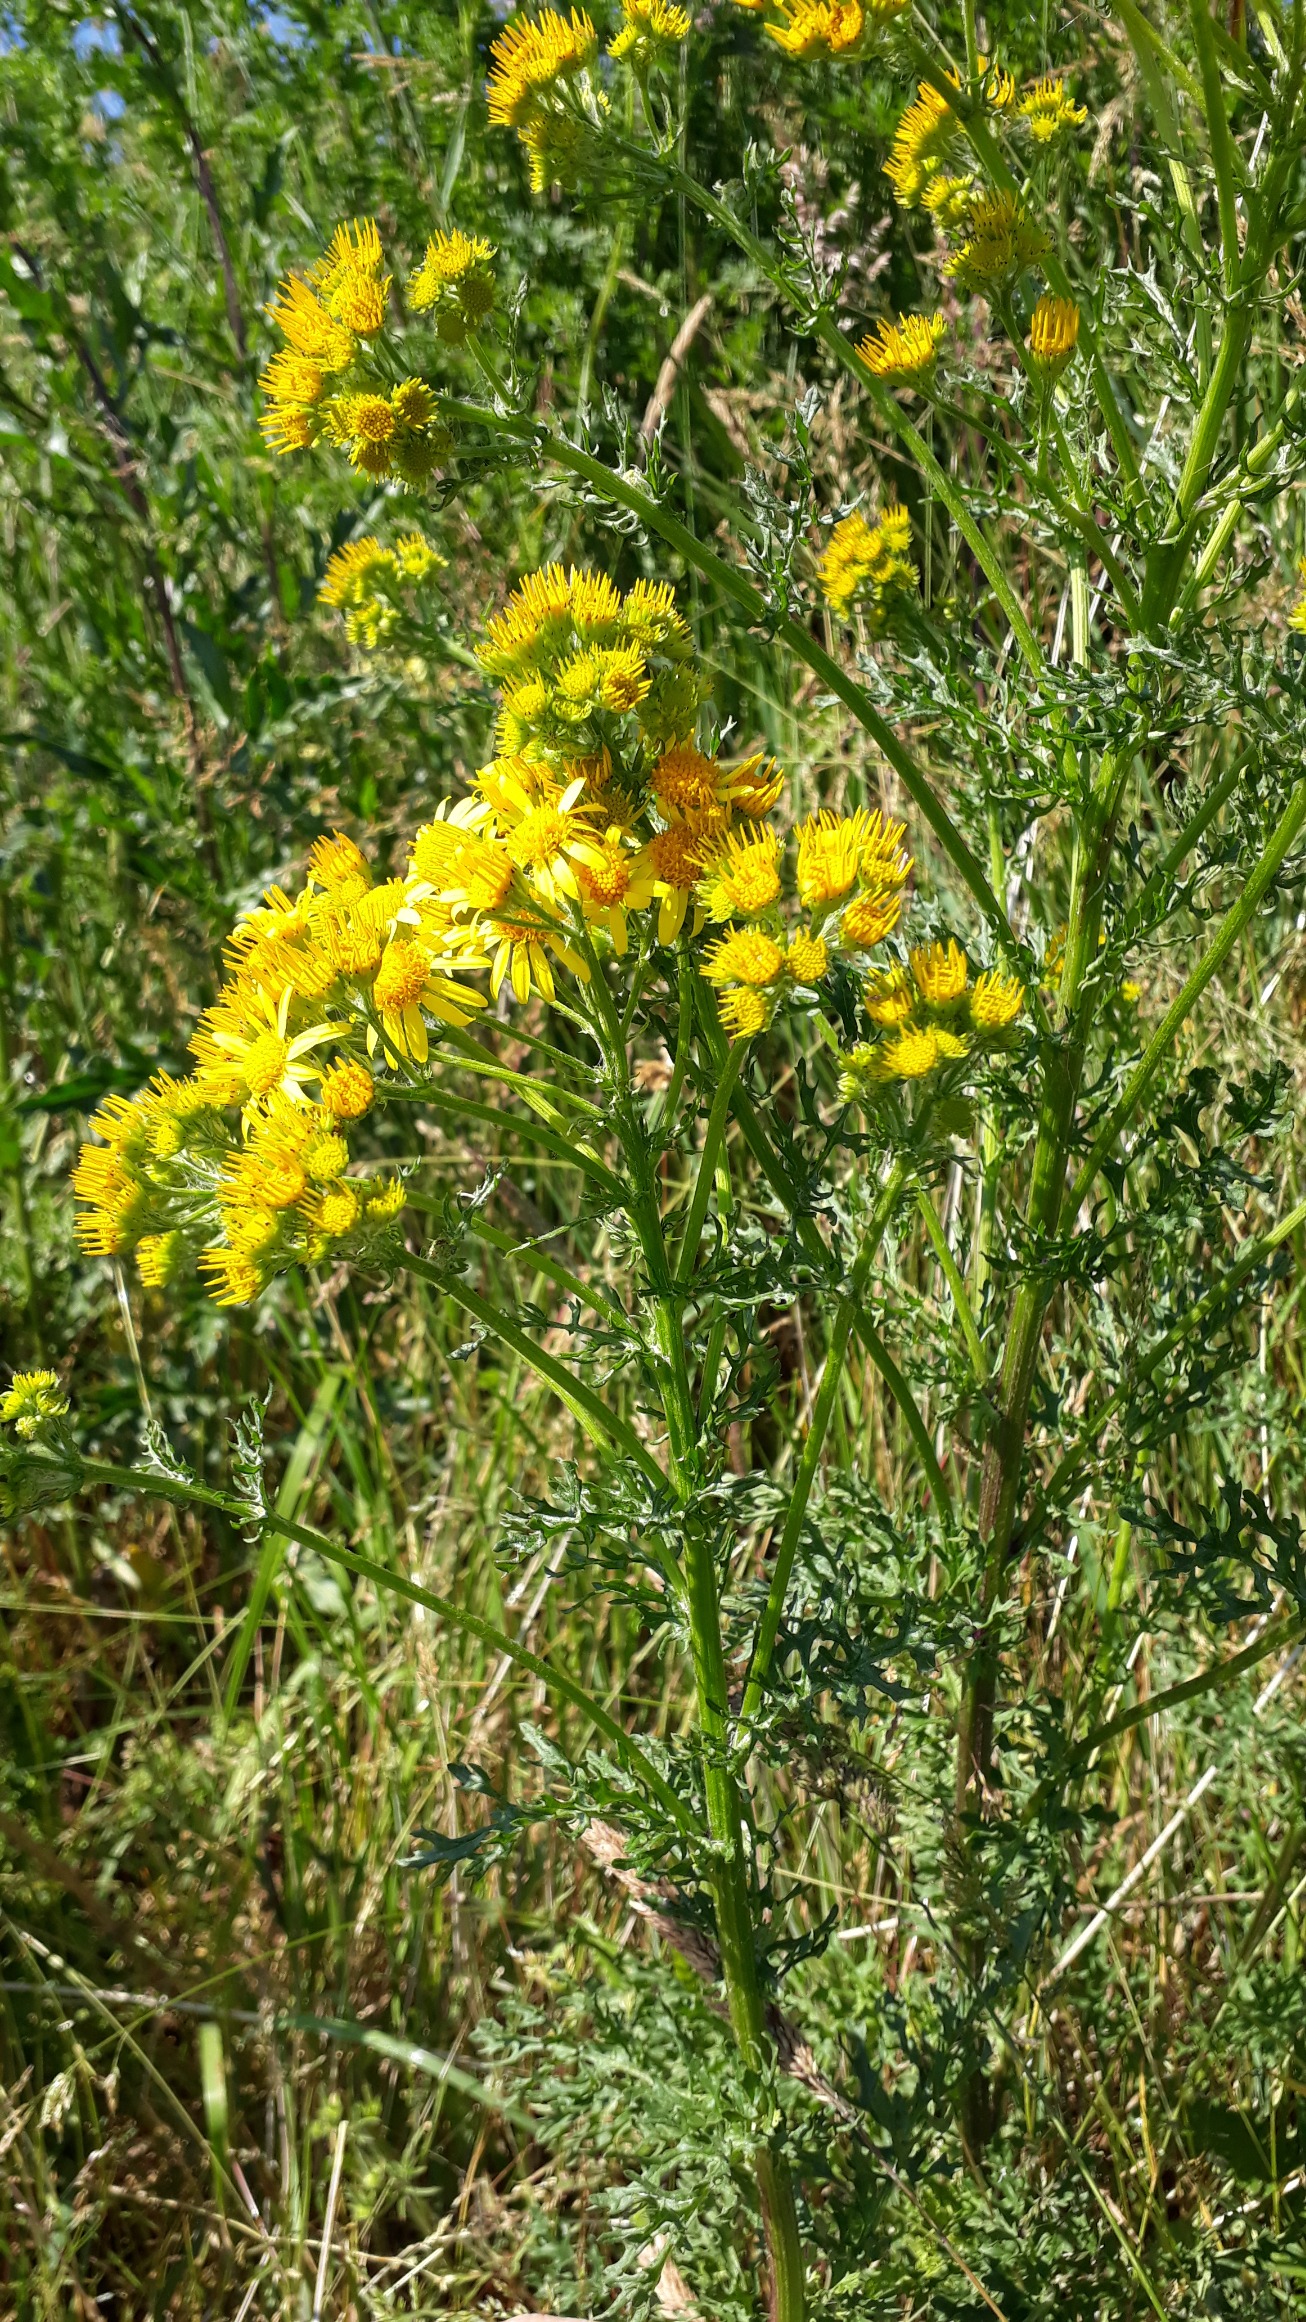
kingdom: Plantae
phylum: Tracheophyta
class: Magnoliopsida
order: Asterales
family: Asteraceae
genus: Jacobaea
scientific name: Jacobaea vulgaris
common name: Eng-brandbæger
